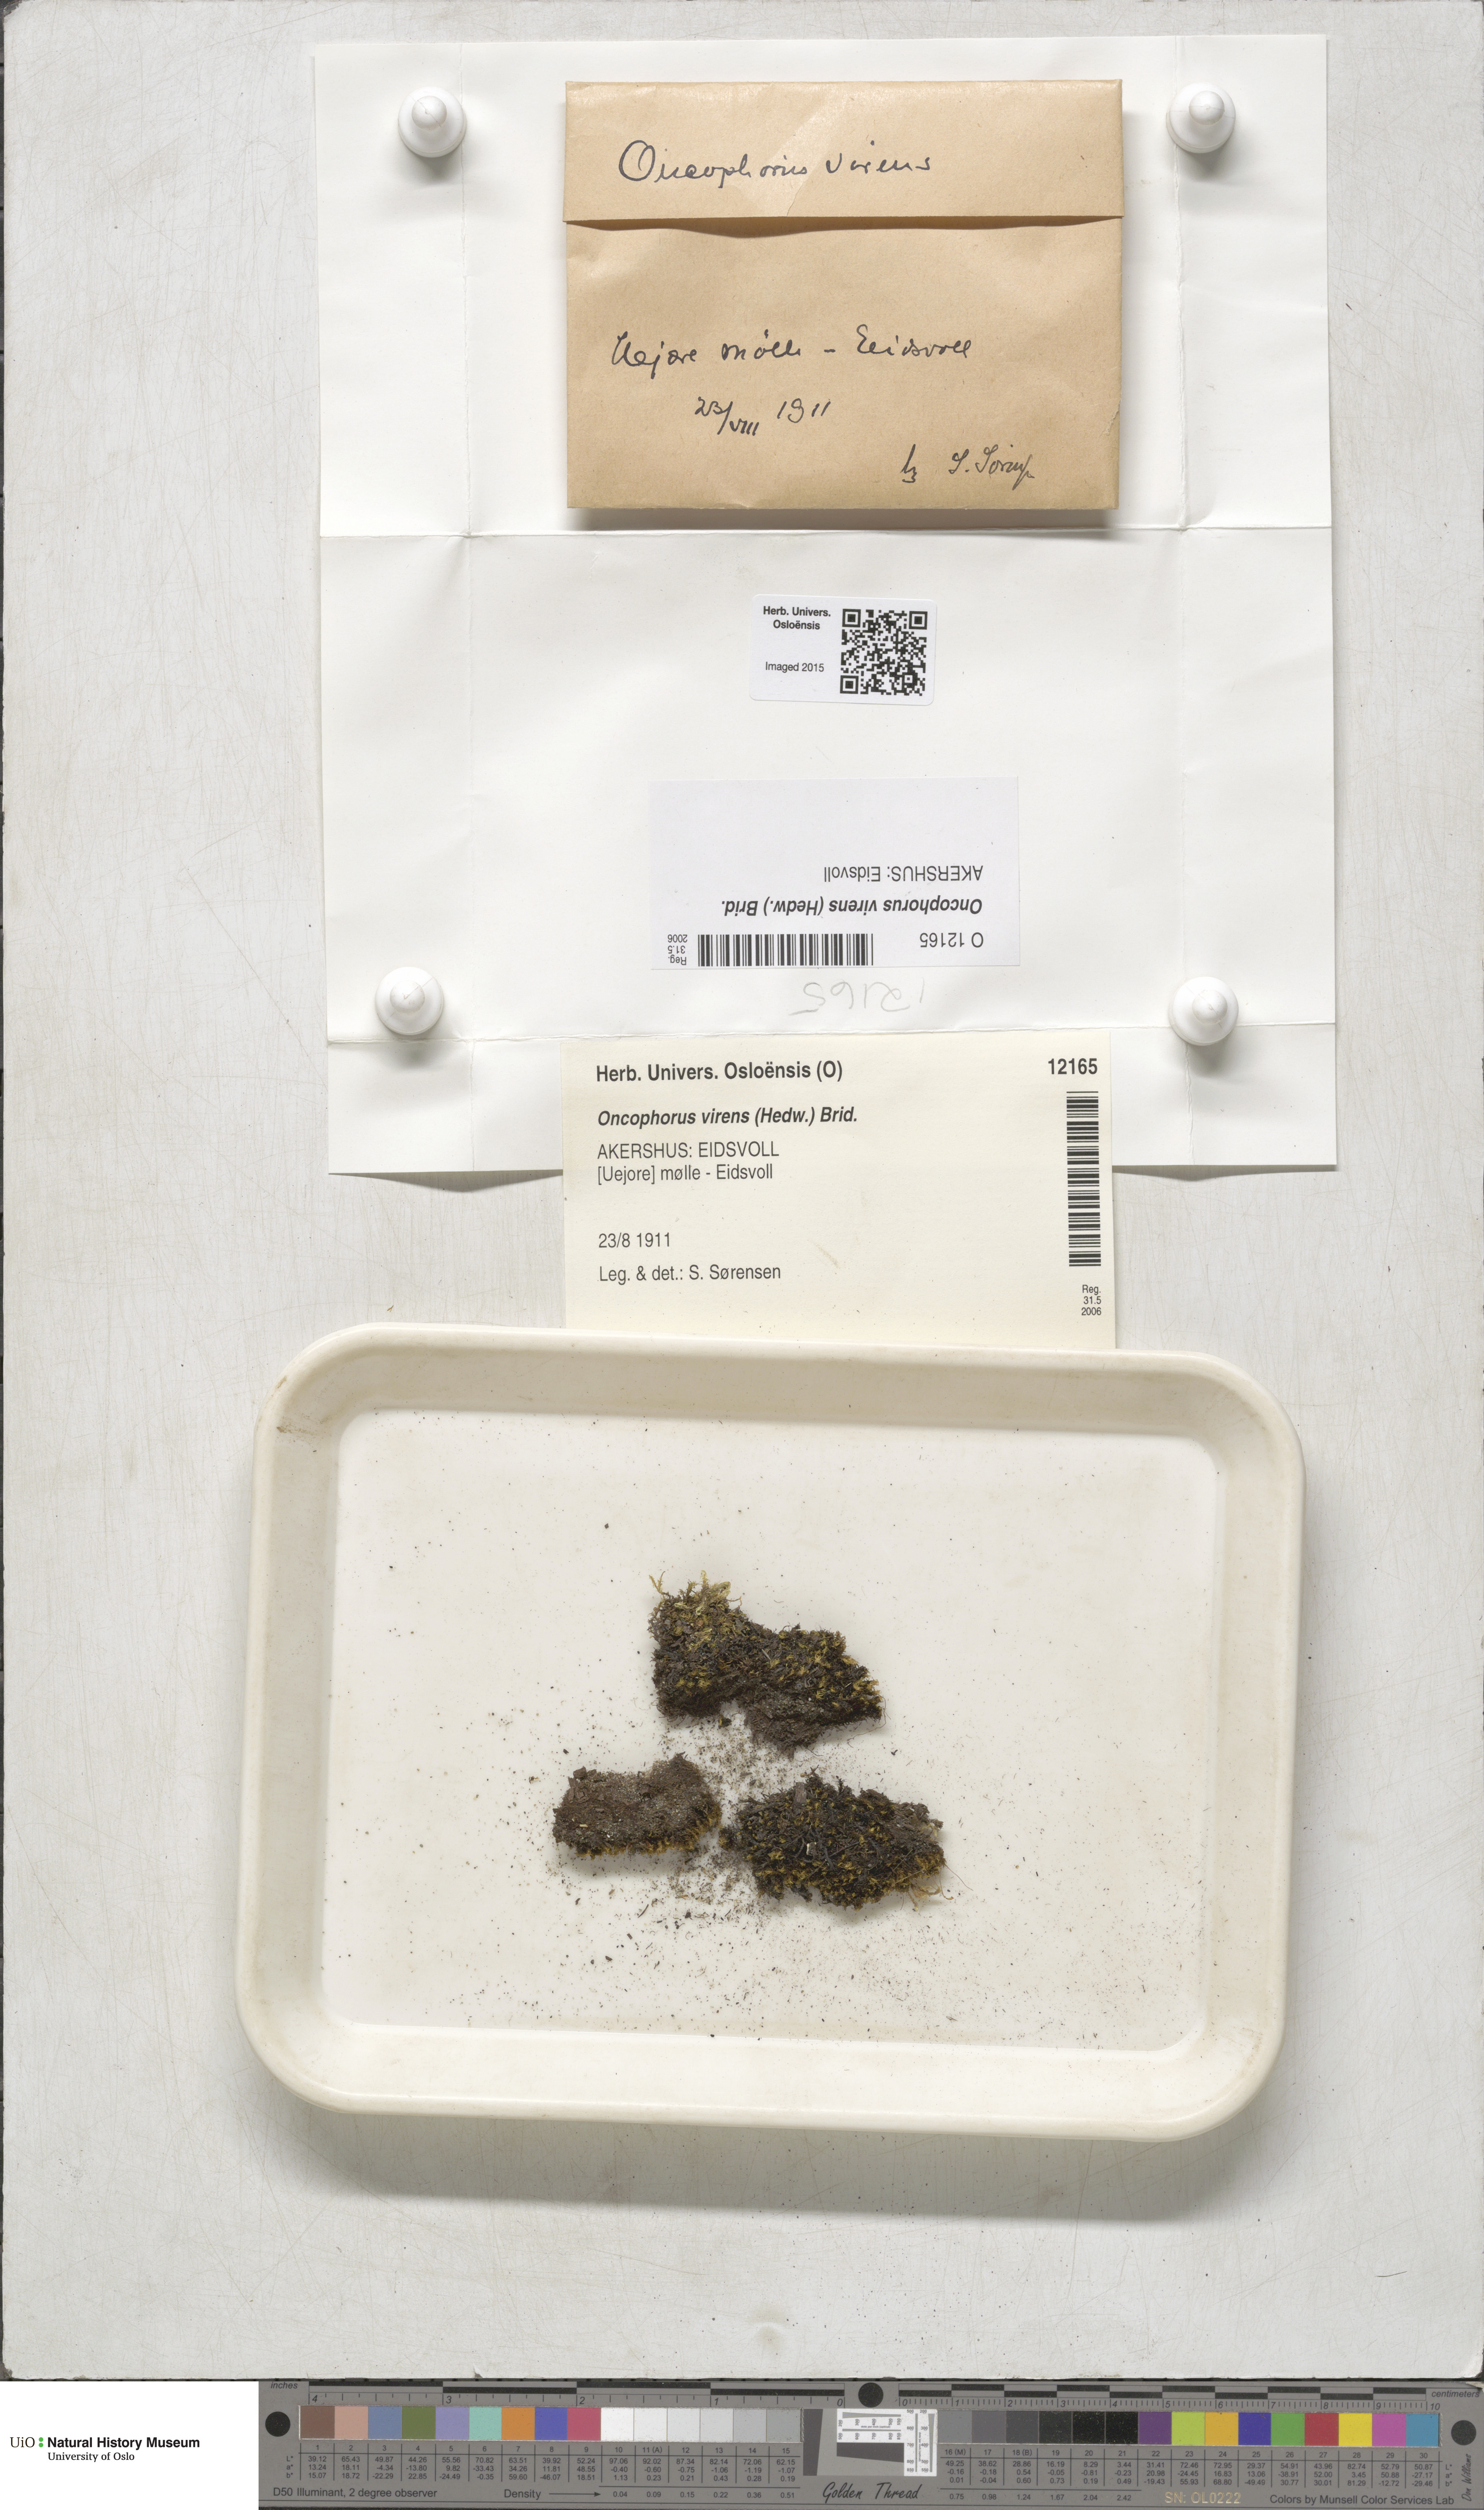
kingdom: Plantae
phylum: Bryophyta
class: Bryopsida
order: Dicranales
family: Rhabdoweisiaceae
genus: Oncophorus
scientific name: Oncophorus virens
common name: Green spur moss
